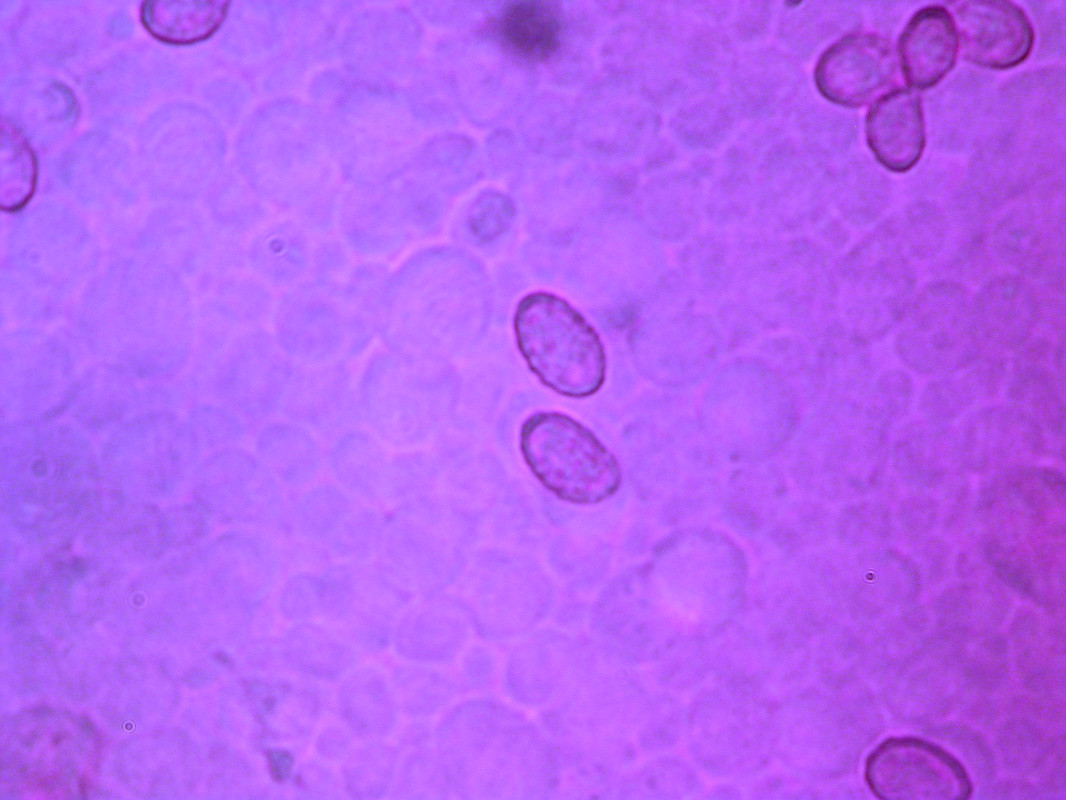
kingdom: Fungi
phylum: Basidiomycota
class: Agaricomycetes
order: Agaricales
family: Cortinariaceae
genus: Cortinarius
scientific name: Cortinarius lignicola
